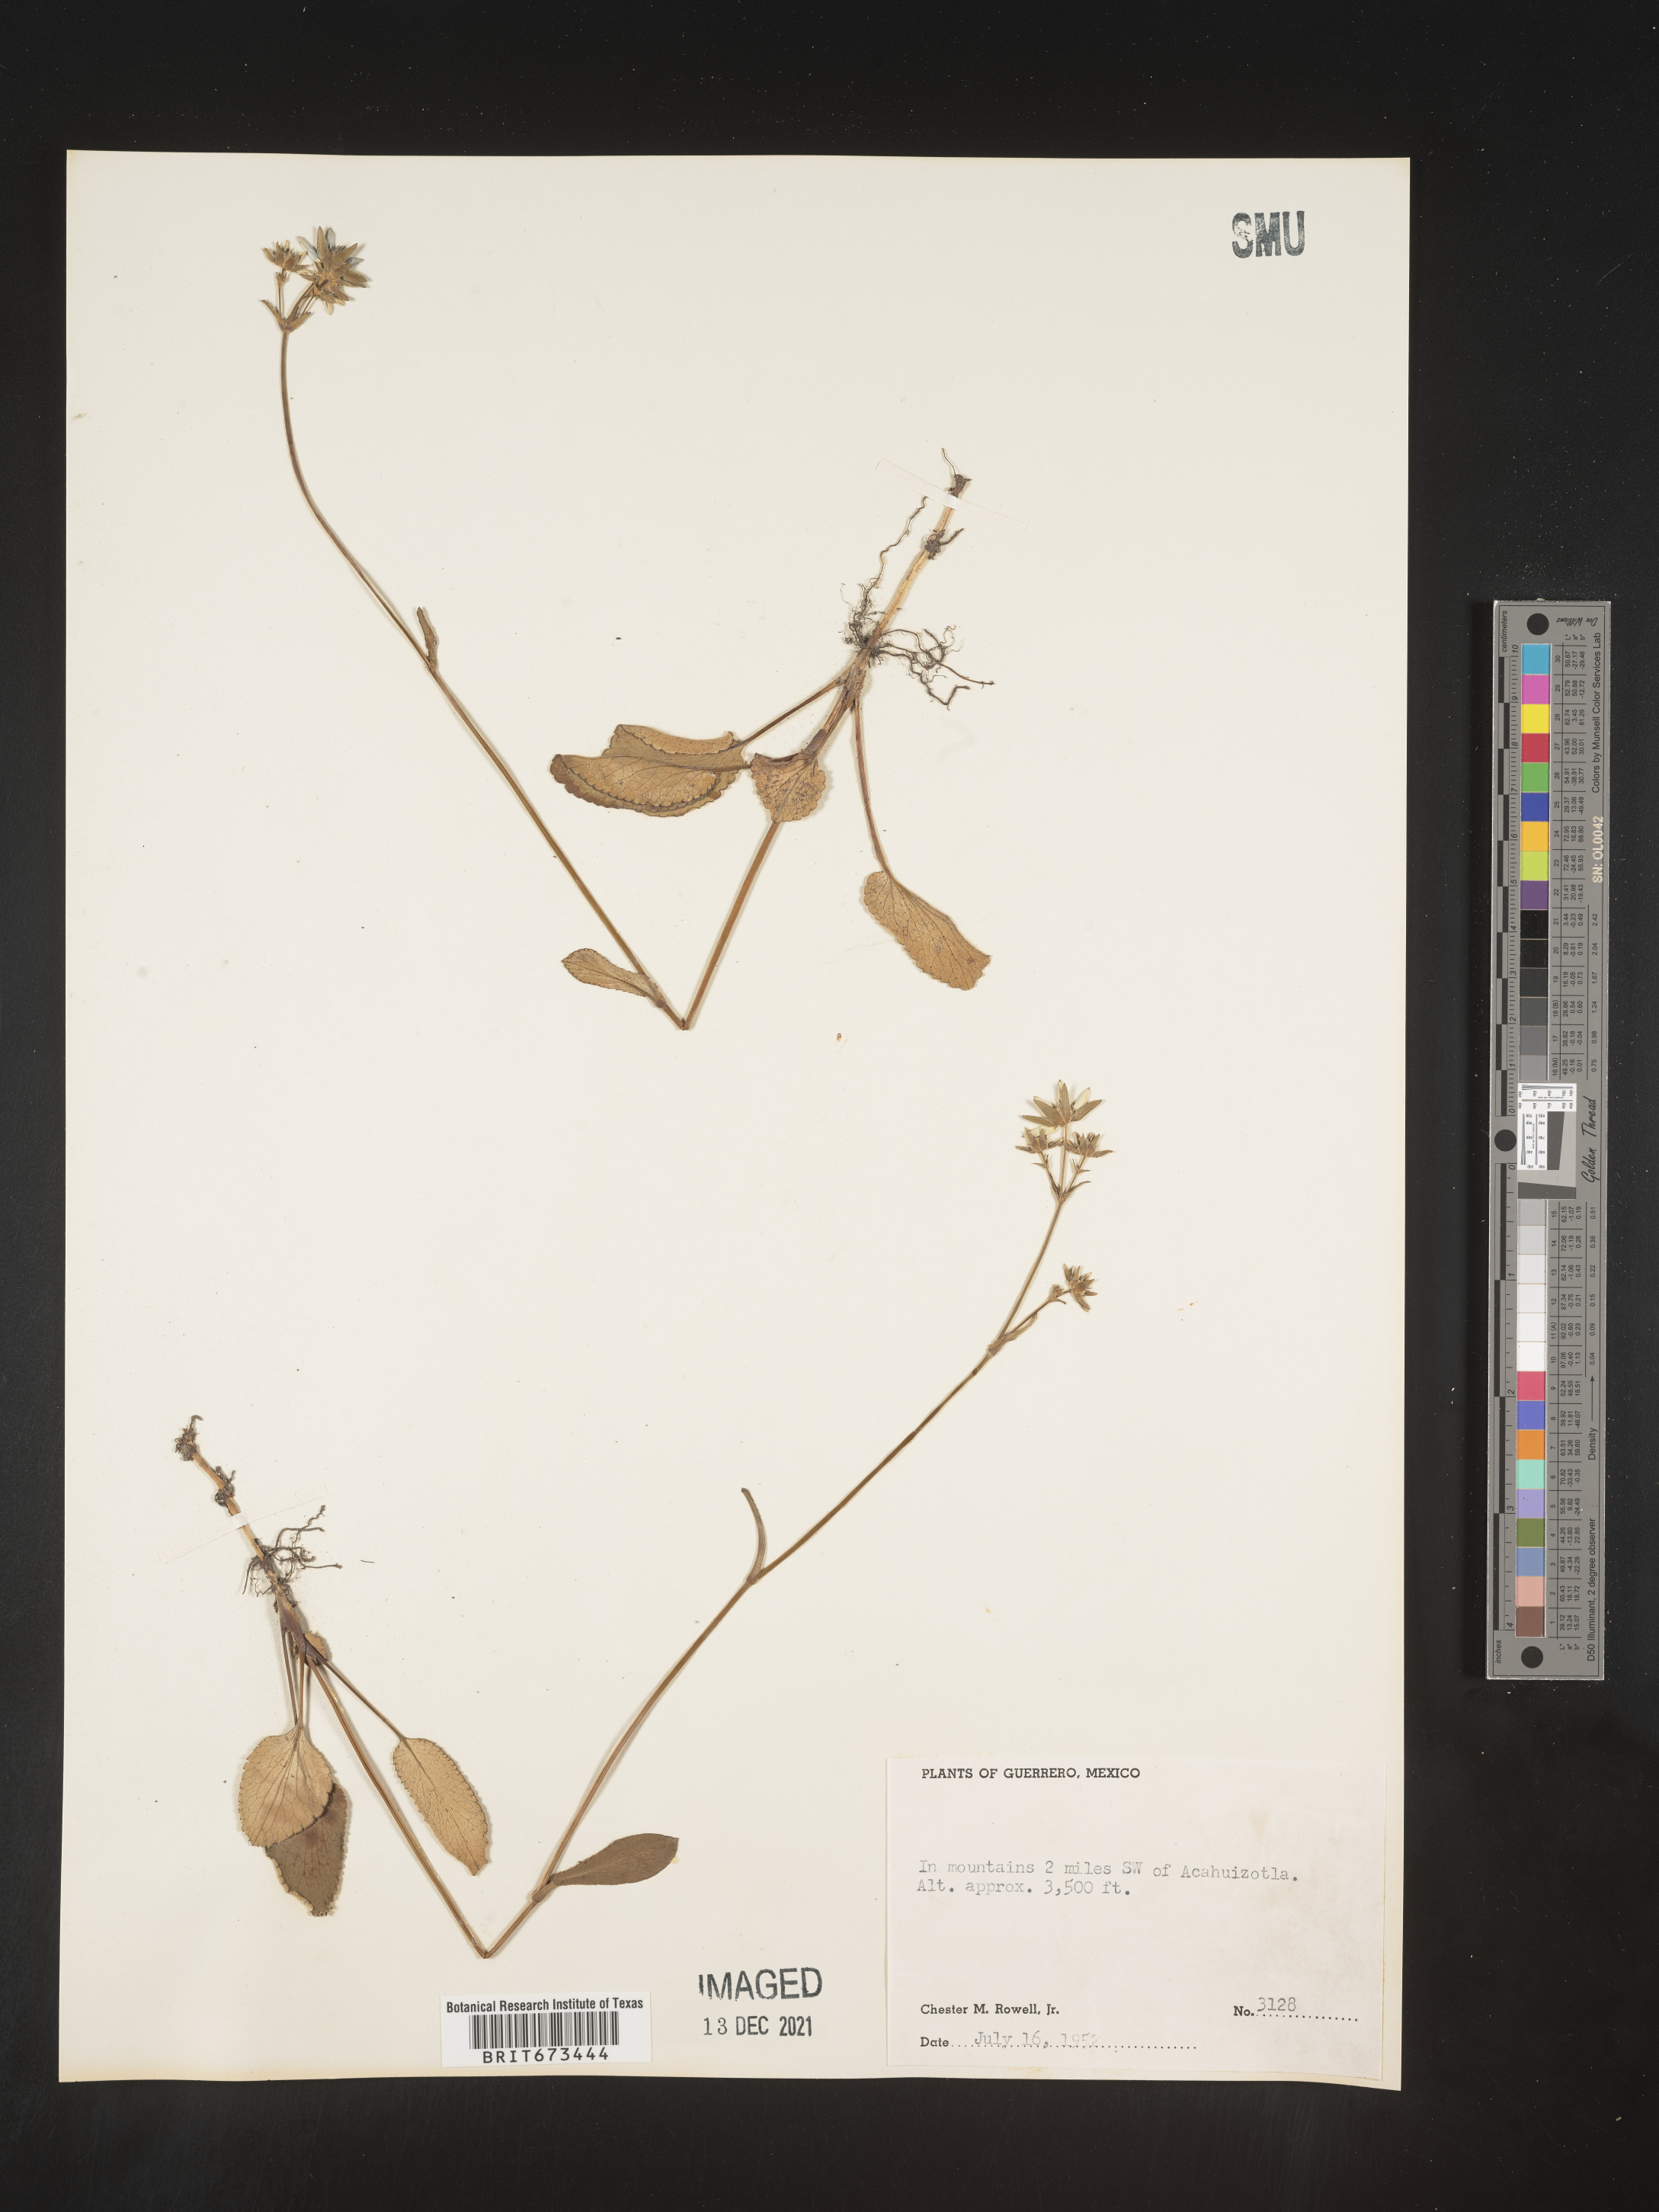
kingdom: Plantae
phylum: Tracheophyta
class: Magnoliopsida
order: Apiales
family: Apiaceae
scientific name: Apiaceae
